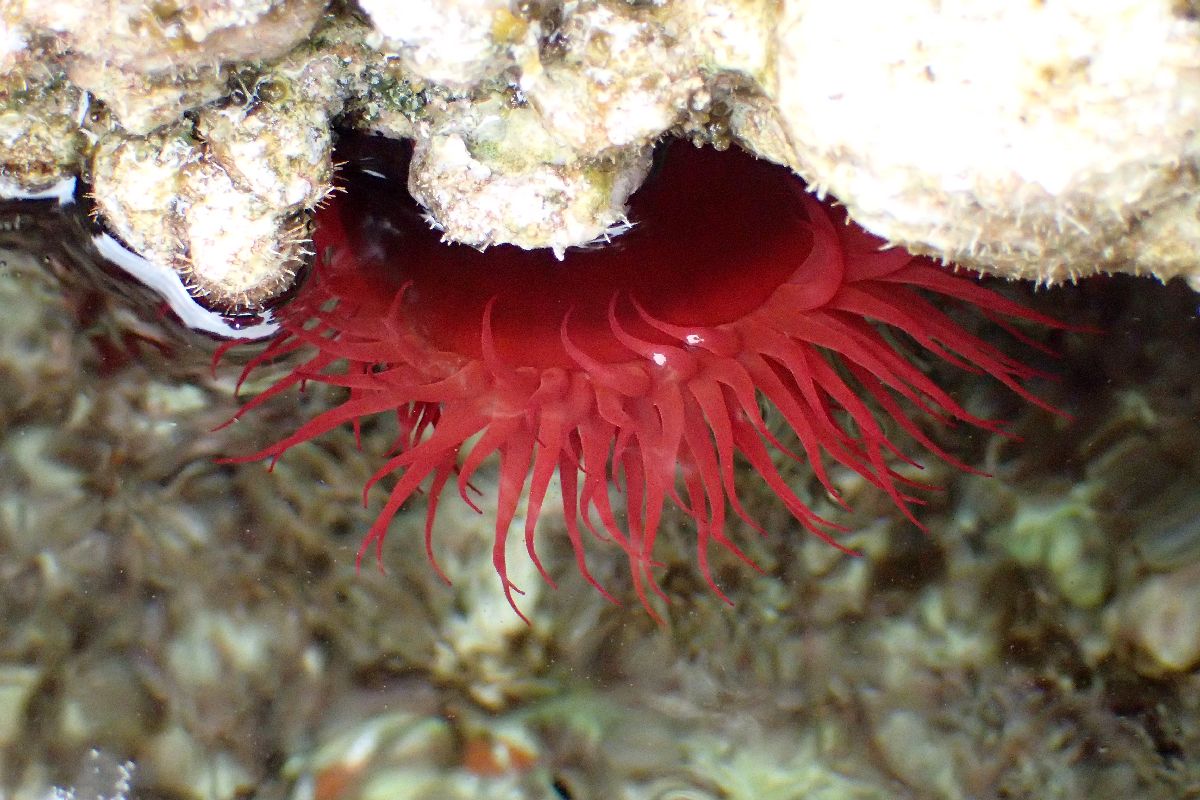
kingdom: Animalia
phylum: Cnidaria
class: Anthozoa
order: Actiniaria
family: Actiniidae
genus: Actinia
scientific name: Actinia mediterranea
